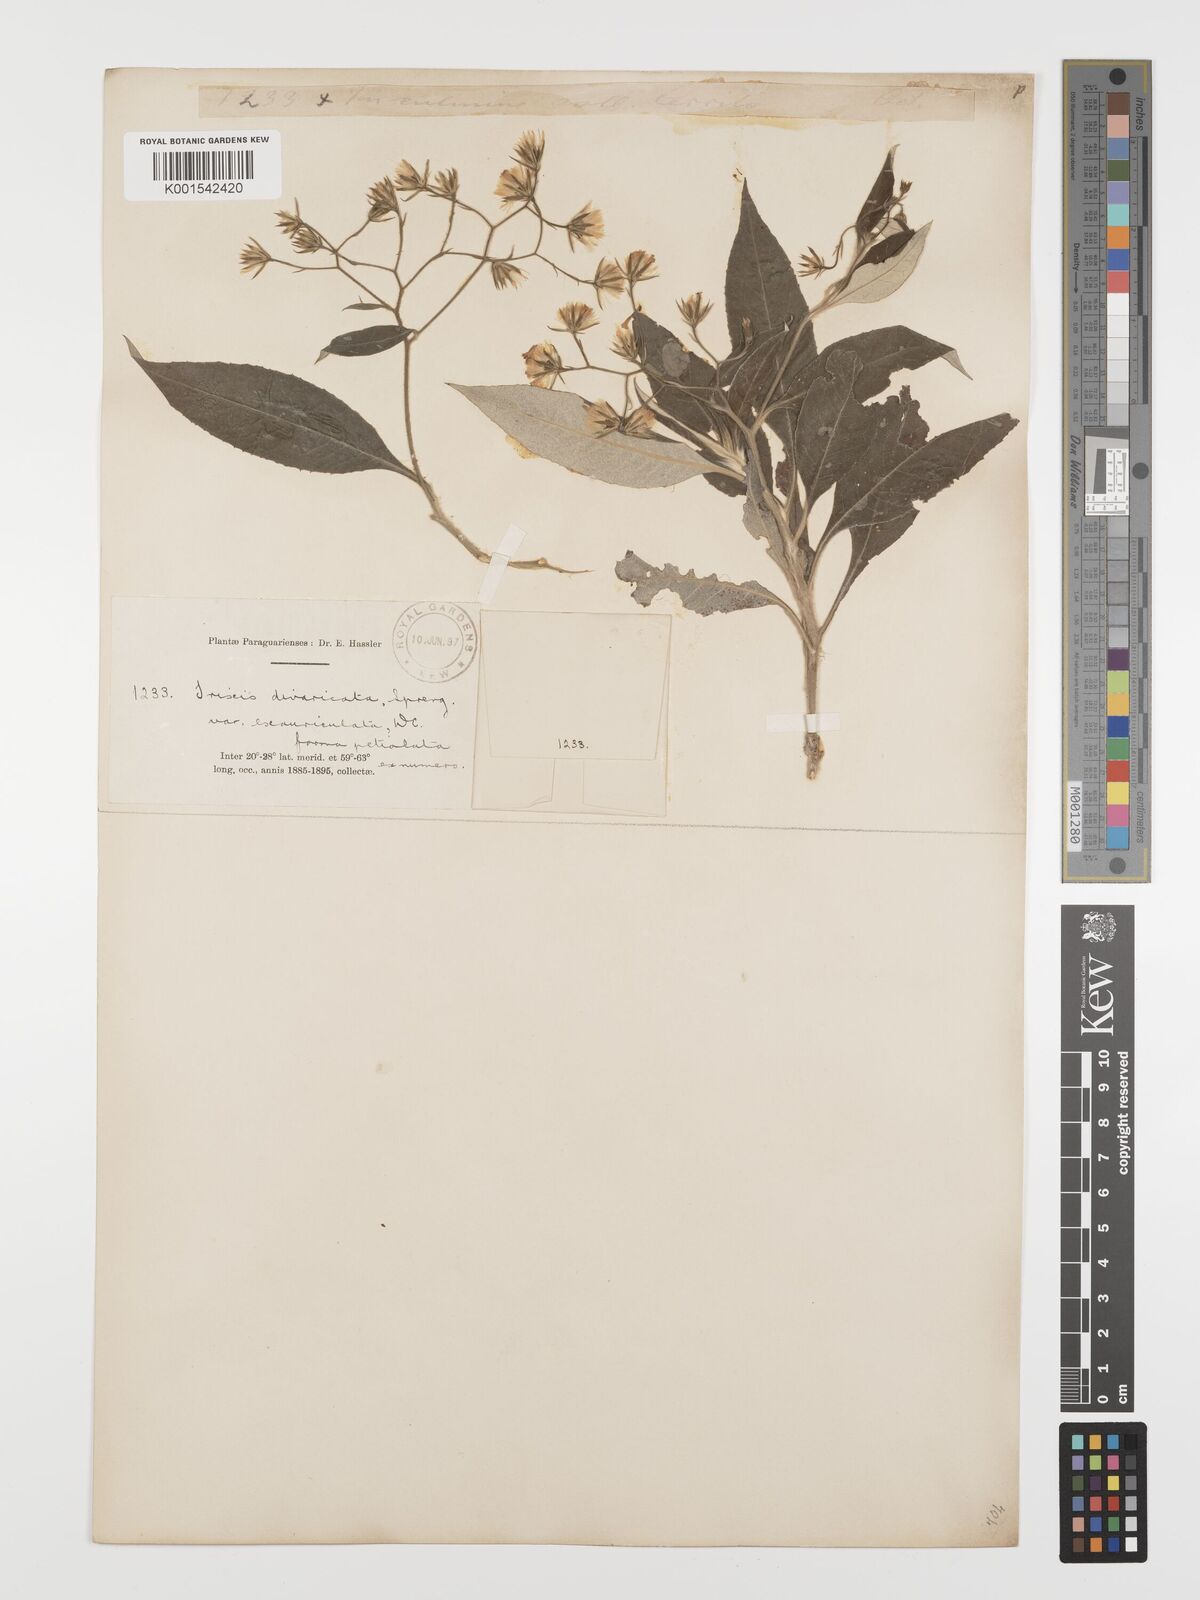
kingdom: Plantae
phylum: Tracheophyta
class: Magnoliopsida
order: Asterales
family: Asteraceae
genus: Trixis
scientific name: Trixis divaricata
